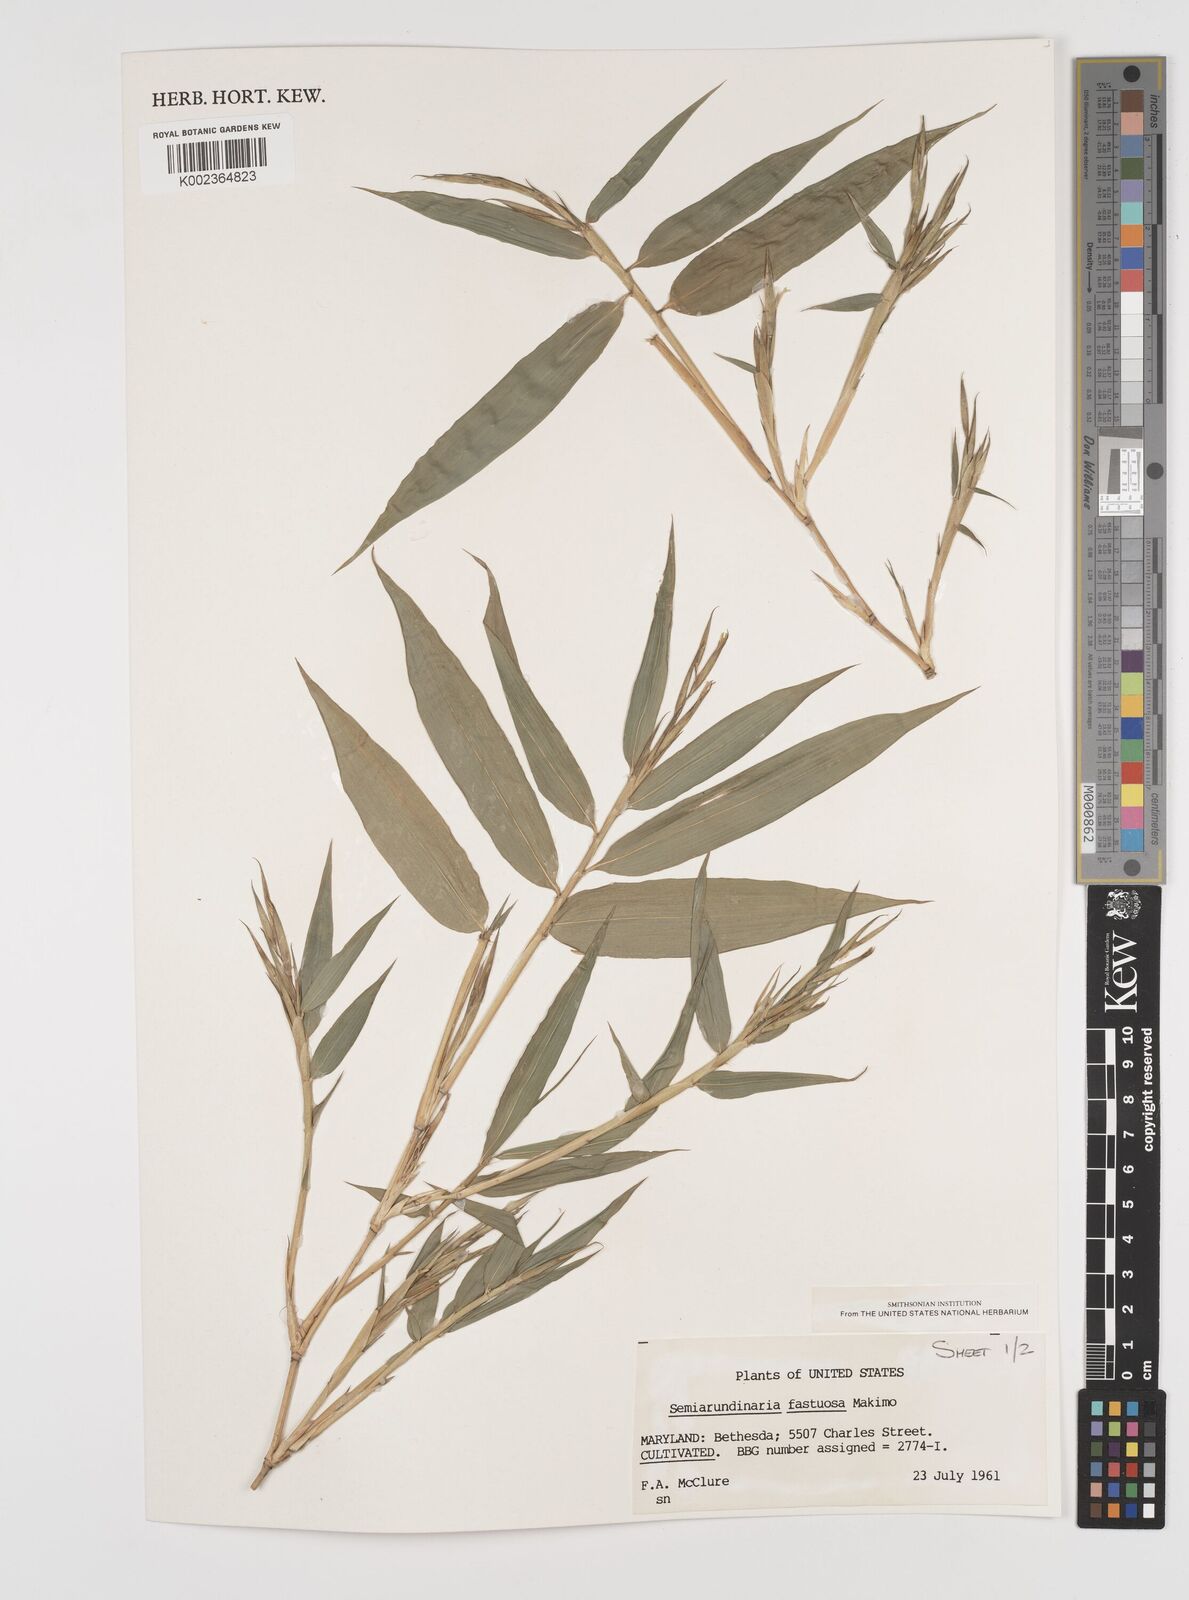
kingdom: Plantae
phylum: Tracheophyta
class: Liliopsida
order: Poales
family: Poaceae
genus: Semiarundinaria
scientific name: Semiarundinaria fastuosa
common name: Narihira bamboo
